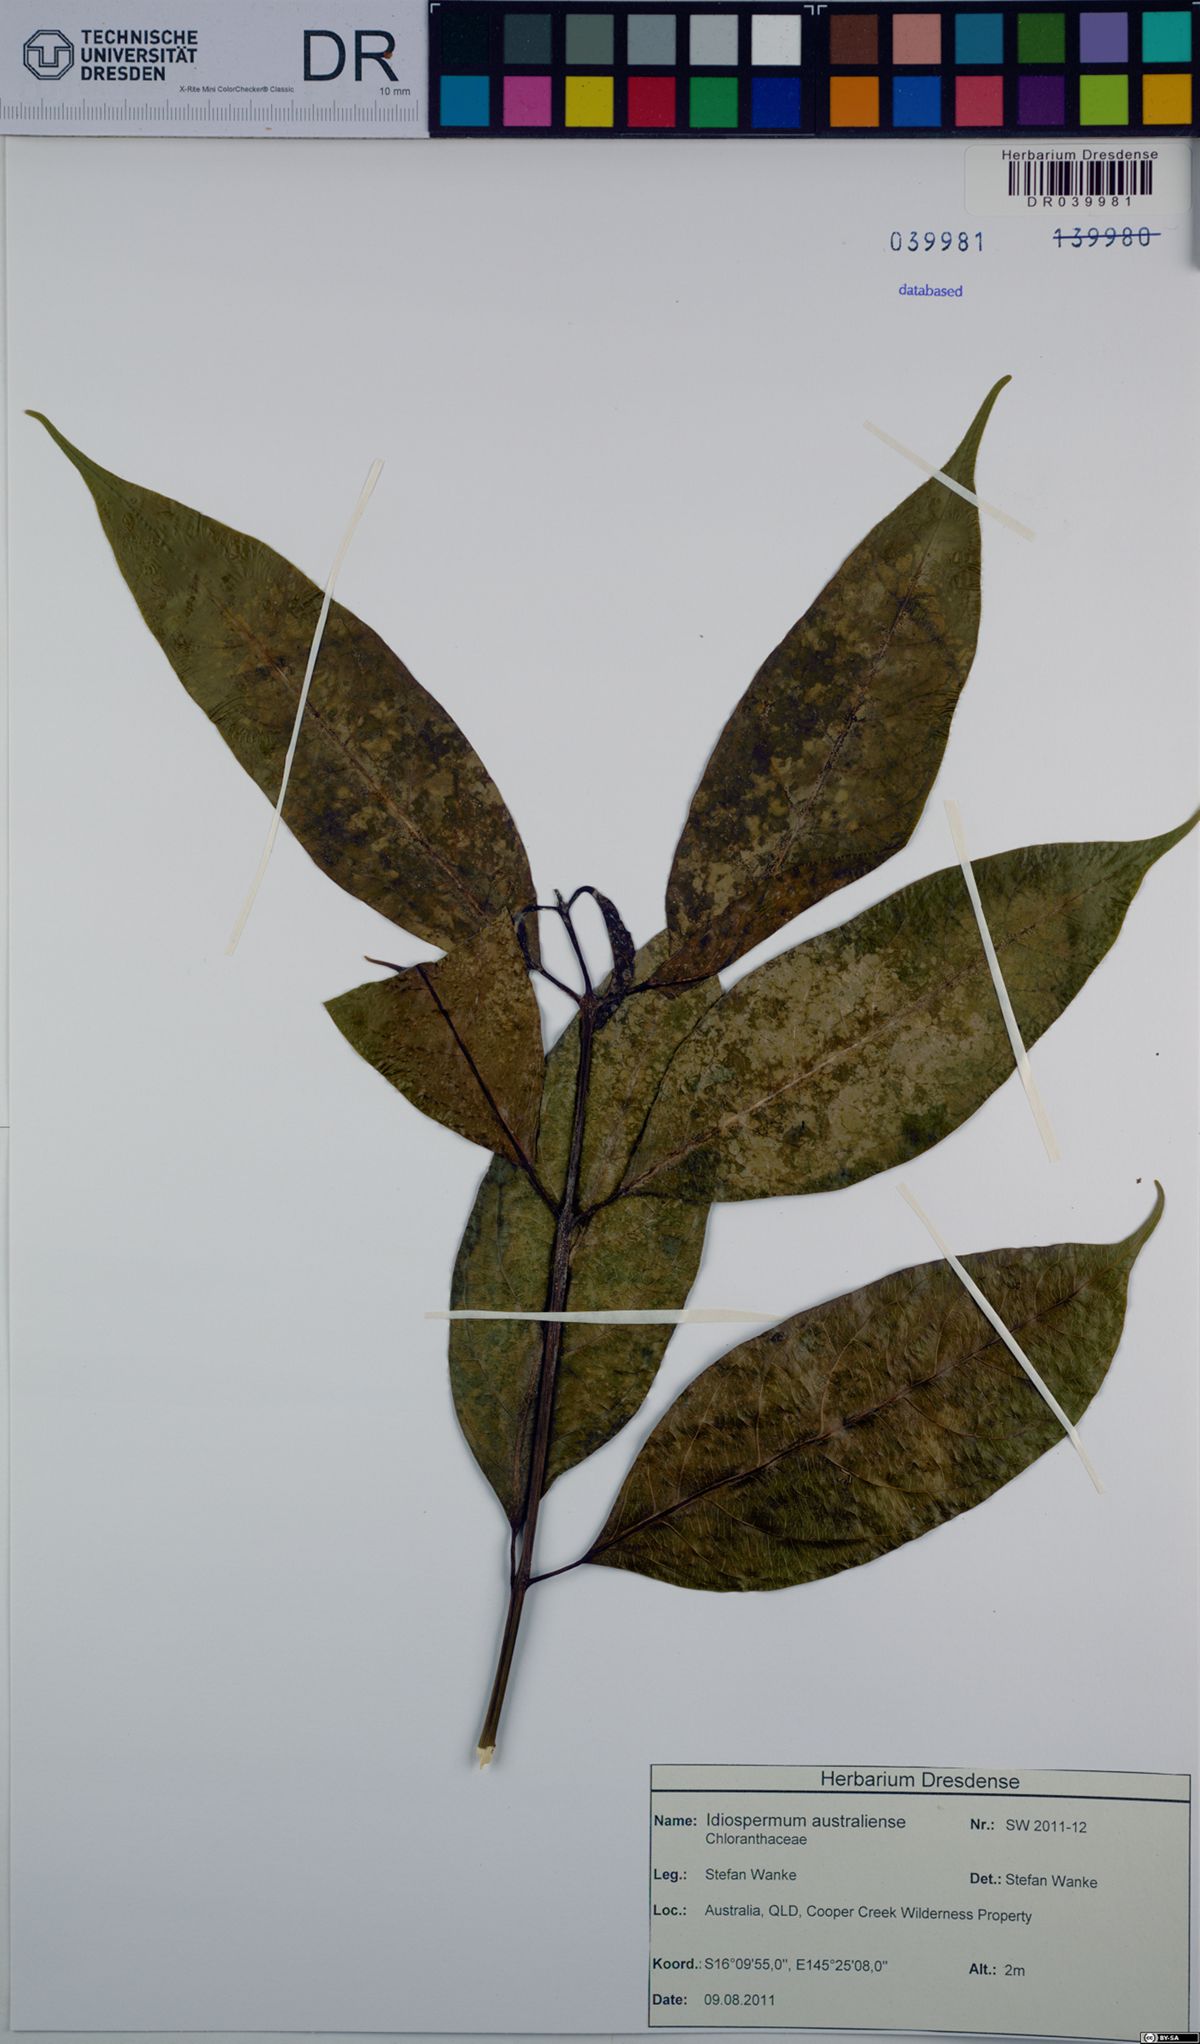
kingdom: Plantae
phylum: Tracheophyta
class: Magnoliopsida
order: Laurales
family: Calycanthaceae
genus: Idiospermum
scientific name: Idiospermum australiense
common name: Idiot-fruit
